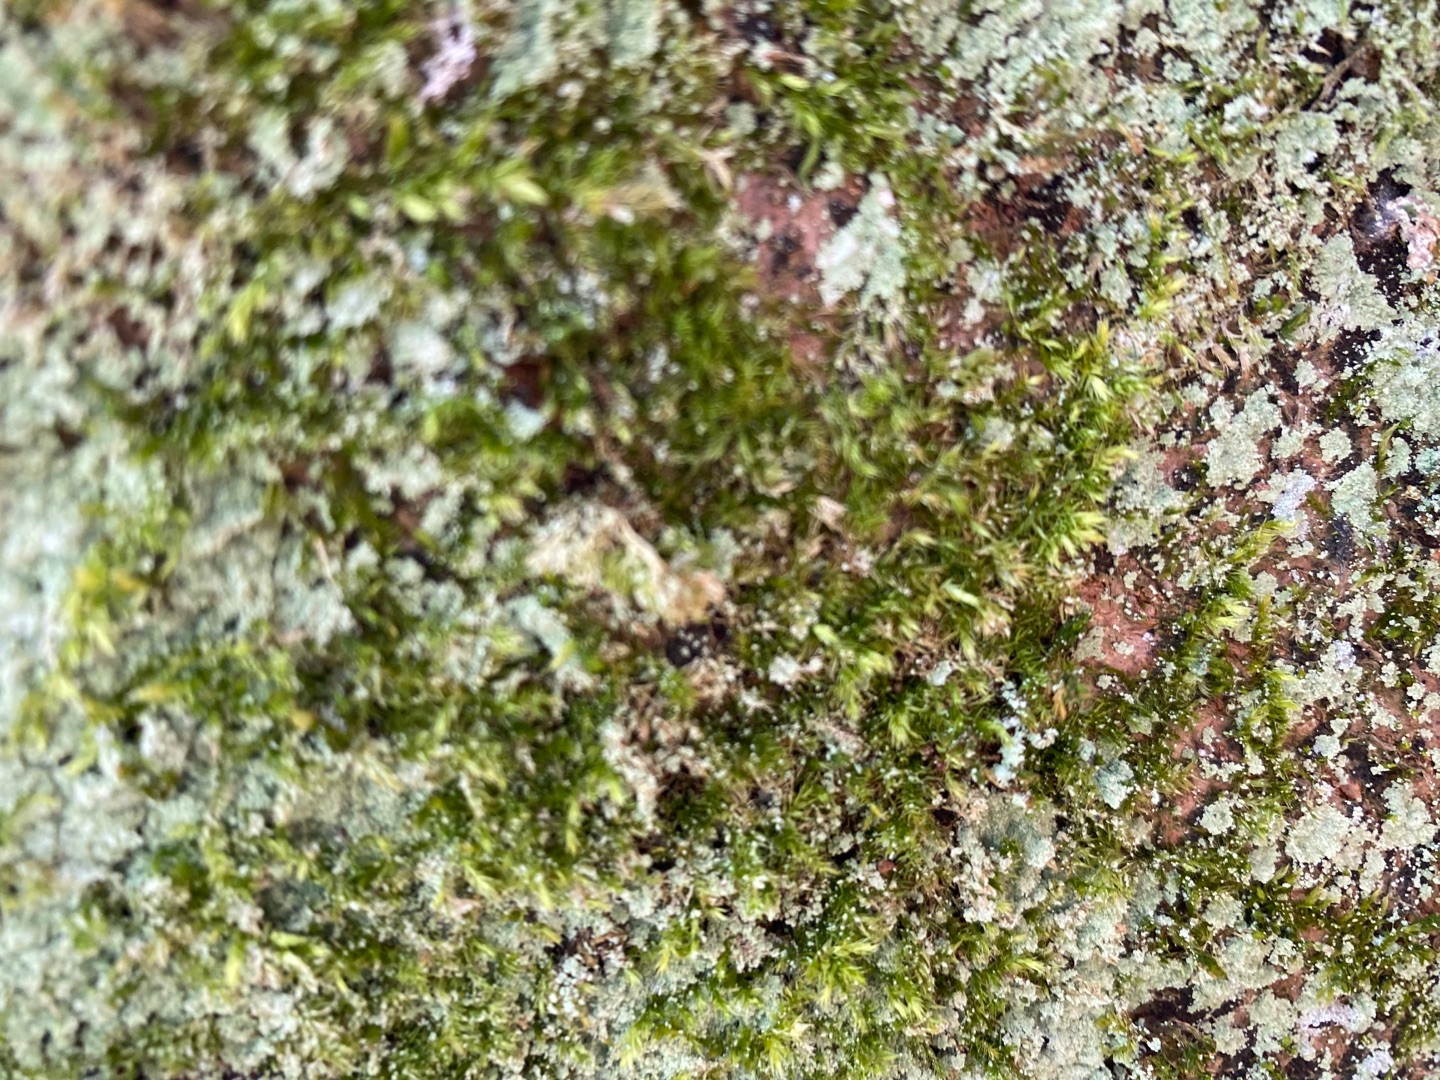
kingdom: Fungi
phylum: Ascomycota
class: Lecanoromycetes
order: Lecanorales
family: Stereocaulaceae
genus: Lepraria
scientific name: Lepraria
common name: Støvlav
